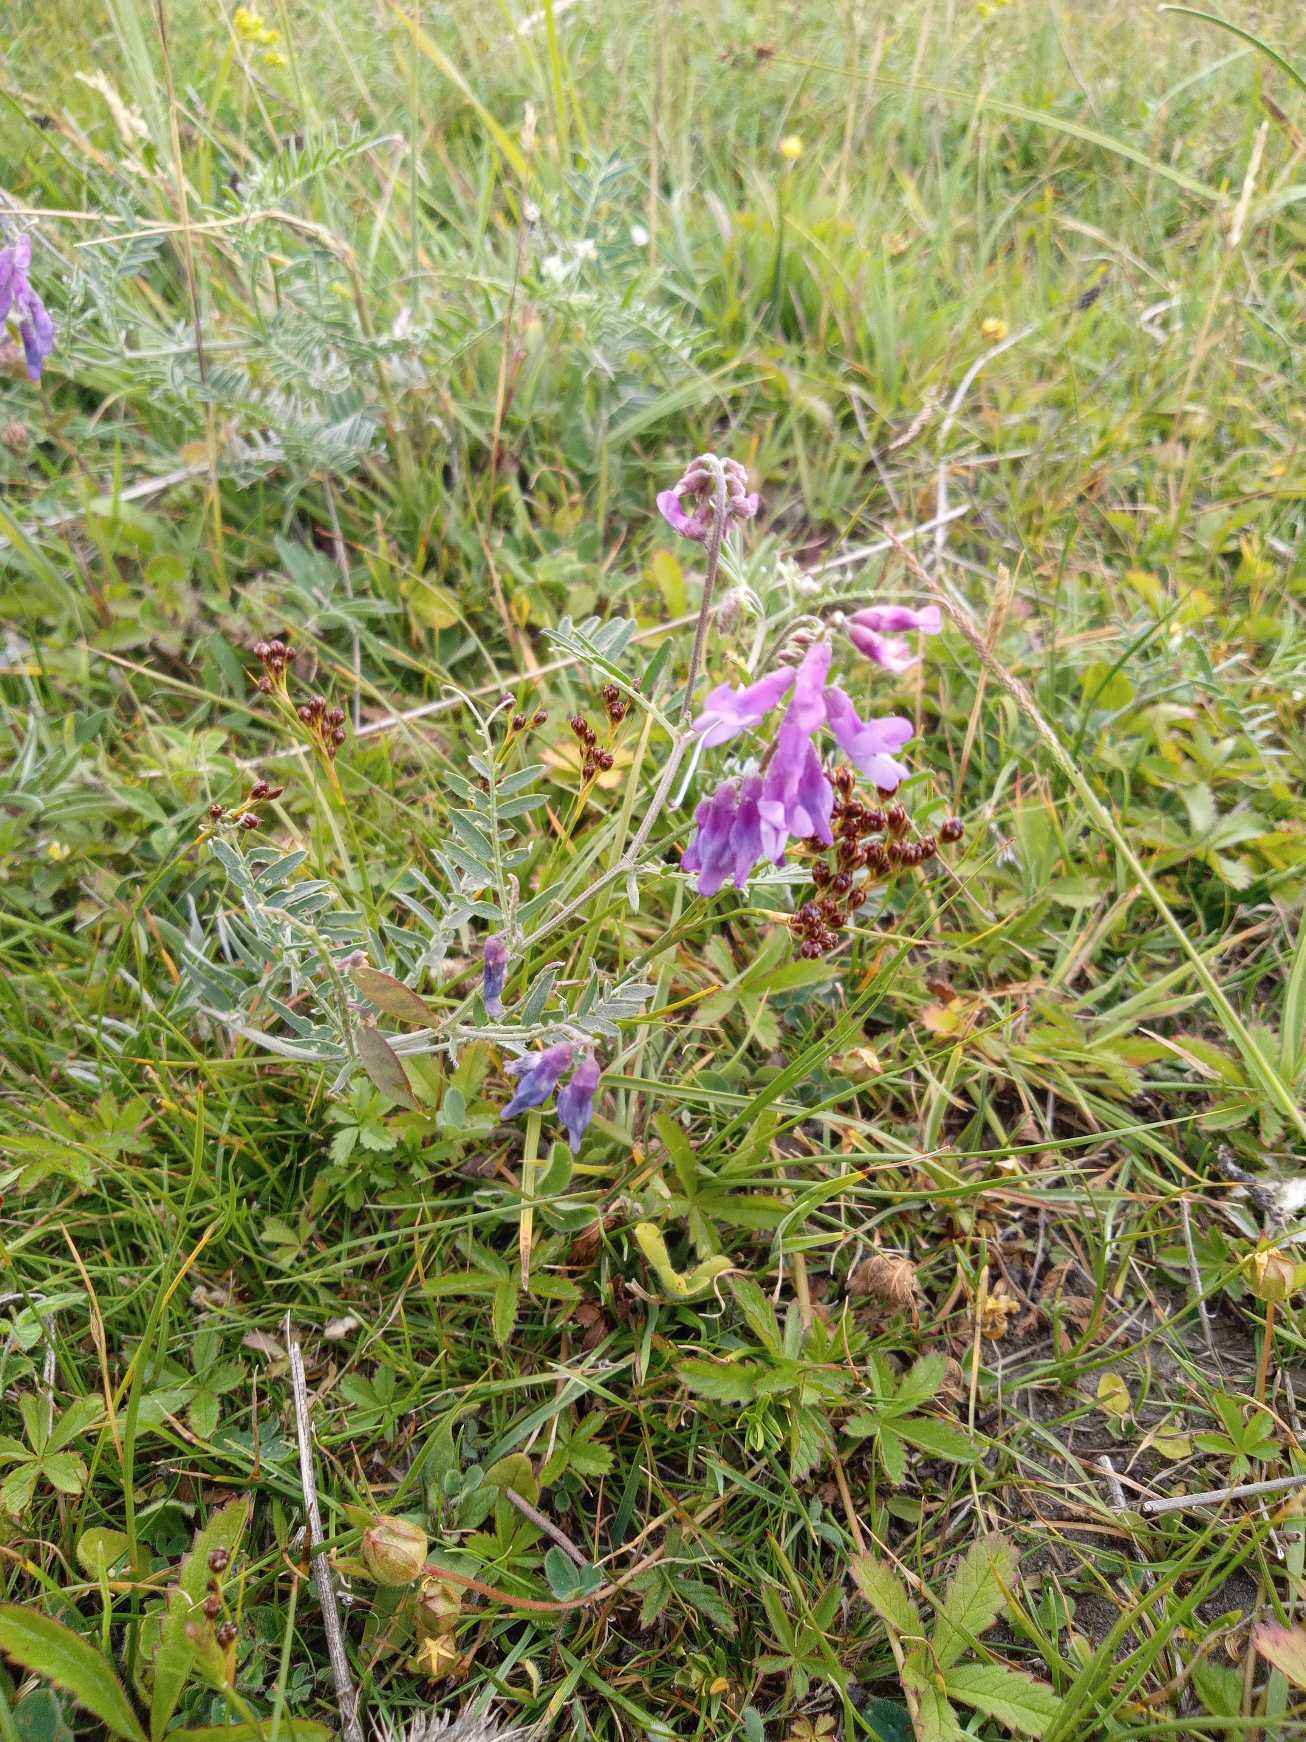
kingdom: Plantae
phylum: Tracheophyta
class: Magnoliopsida
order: Fabales
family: Fabaceae
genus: Vicia
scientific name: Vicia cracca
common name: Muse-vikke
